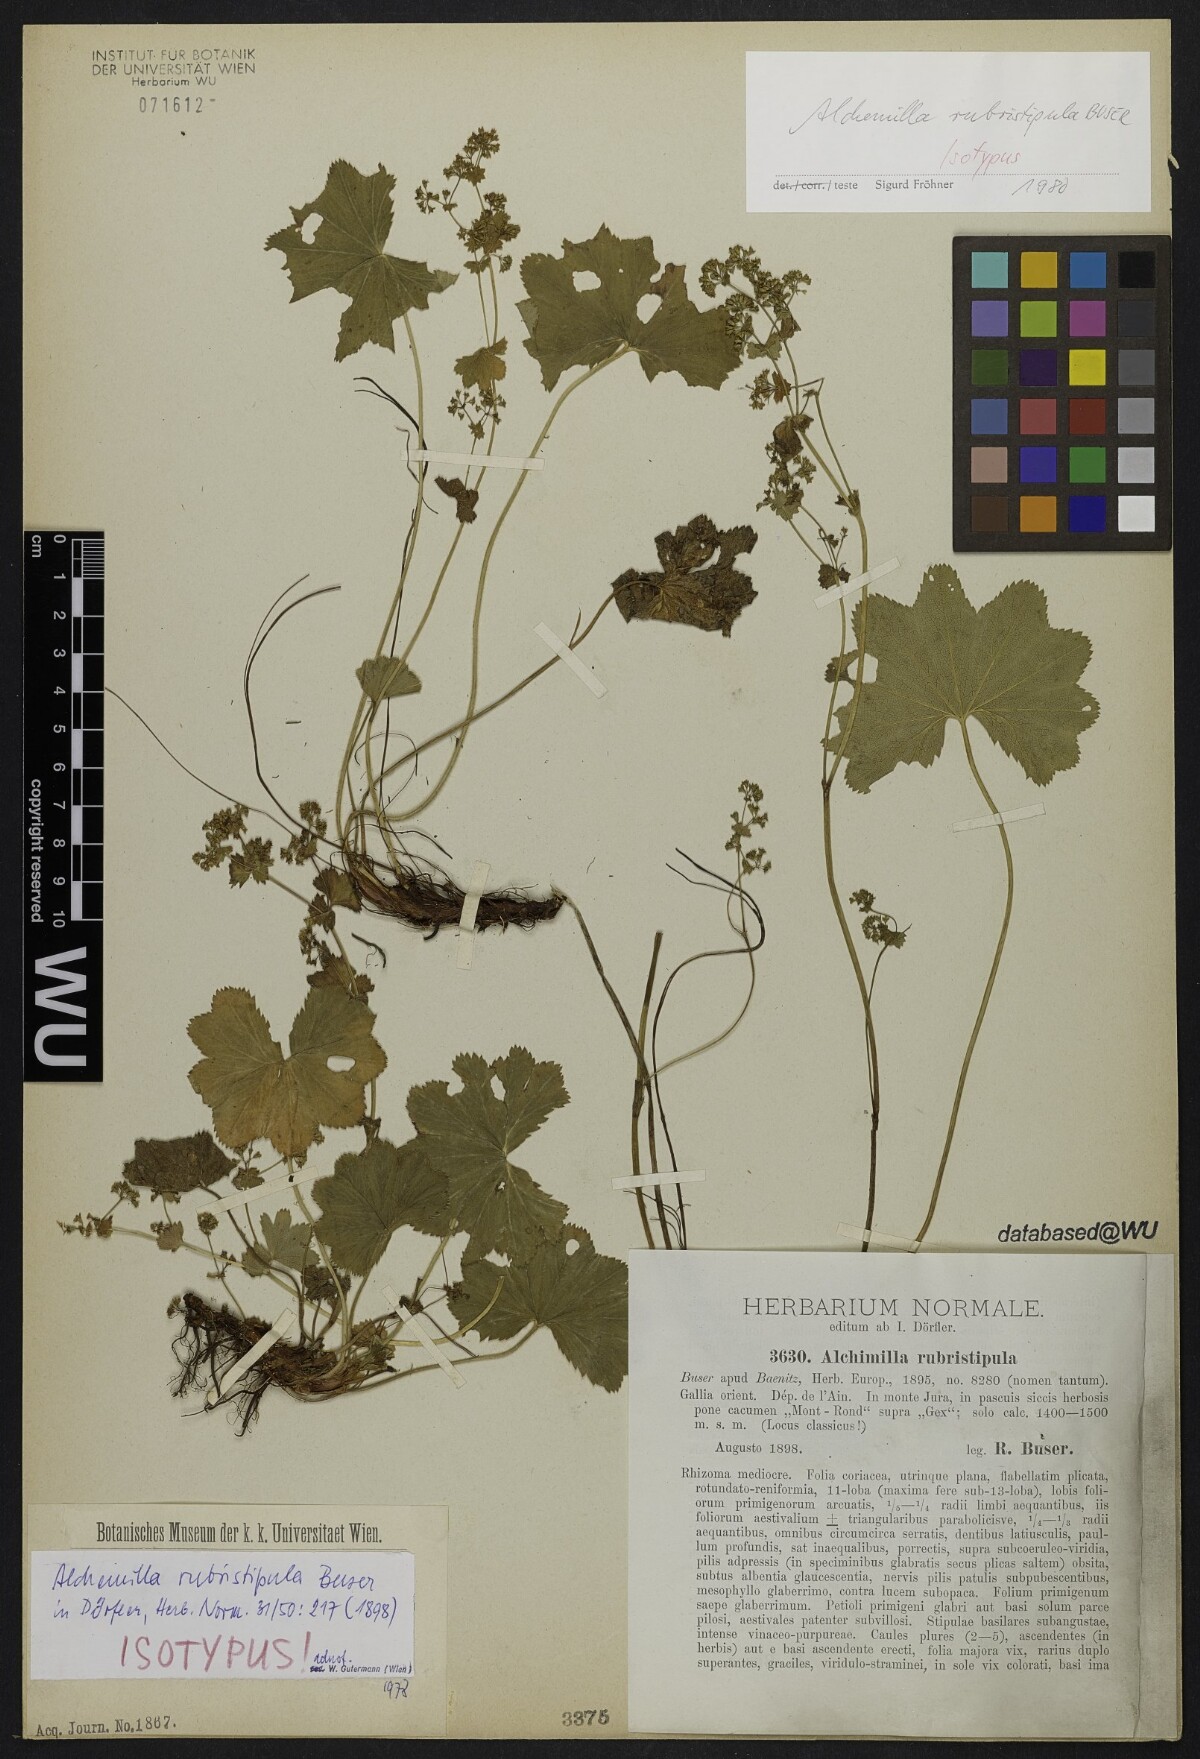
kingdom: Plantae
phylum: Tracheophyta
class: Magnoliopsida
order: Rosales
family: Rosaceae
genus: Alchemilla
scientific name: Alchemilla rubristipula
